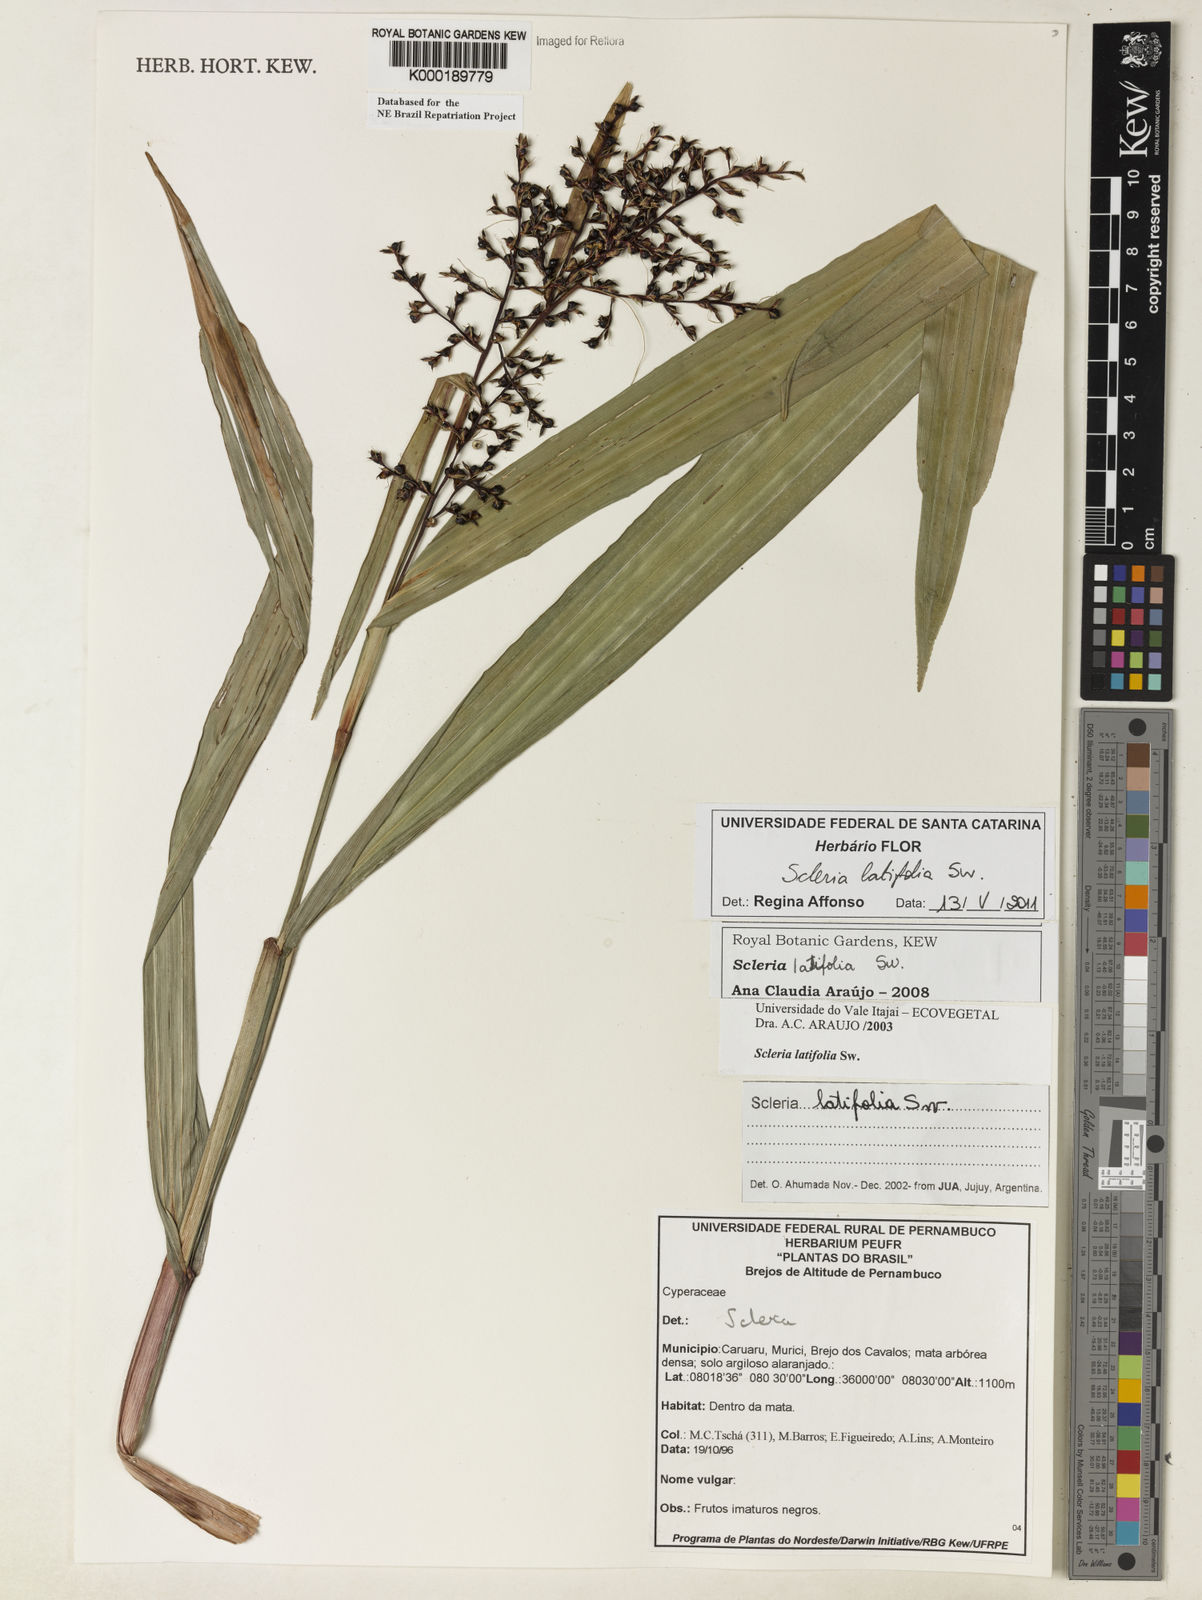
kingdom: Plantae
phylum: Tracheophyta
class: Liliopsida
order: Poales
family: Cyperaceae
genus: Scleria
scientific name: Scleria latifolia
